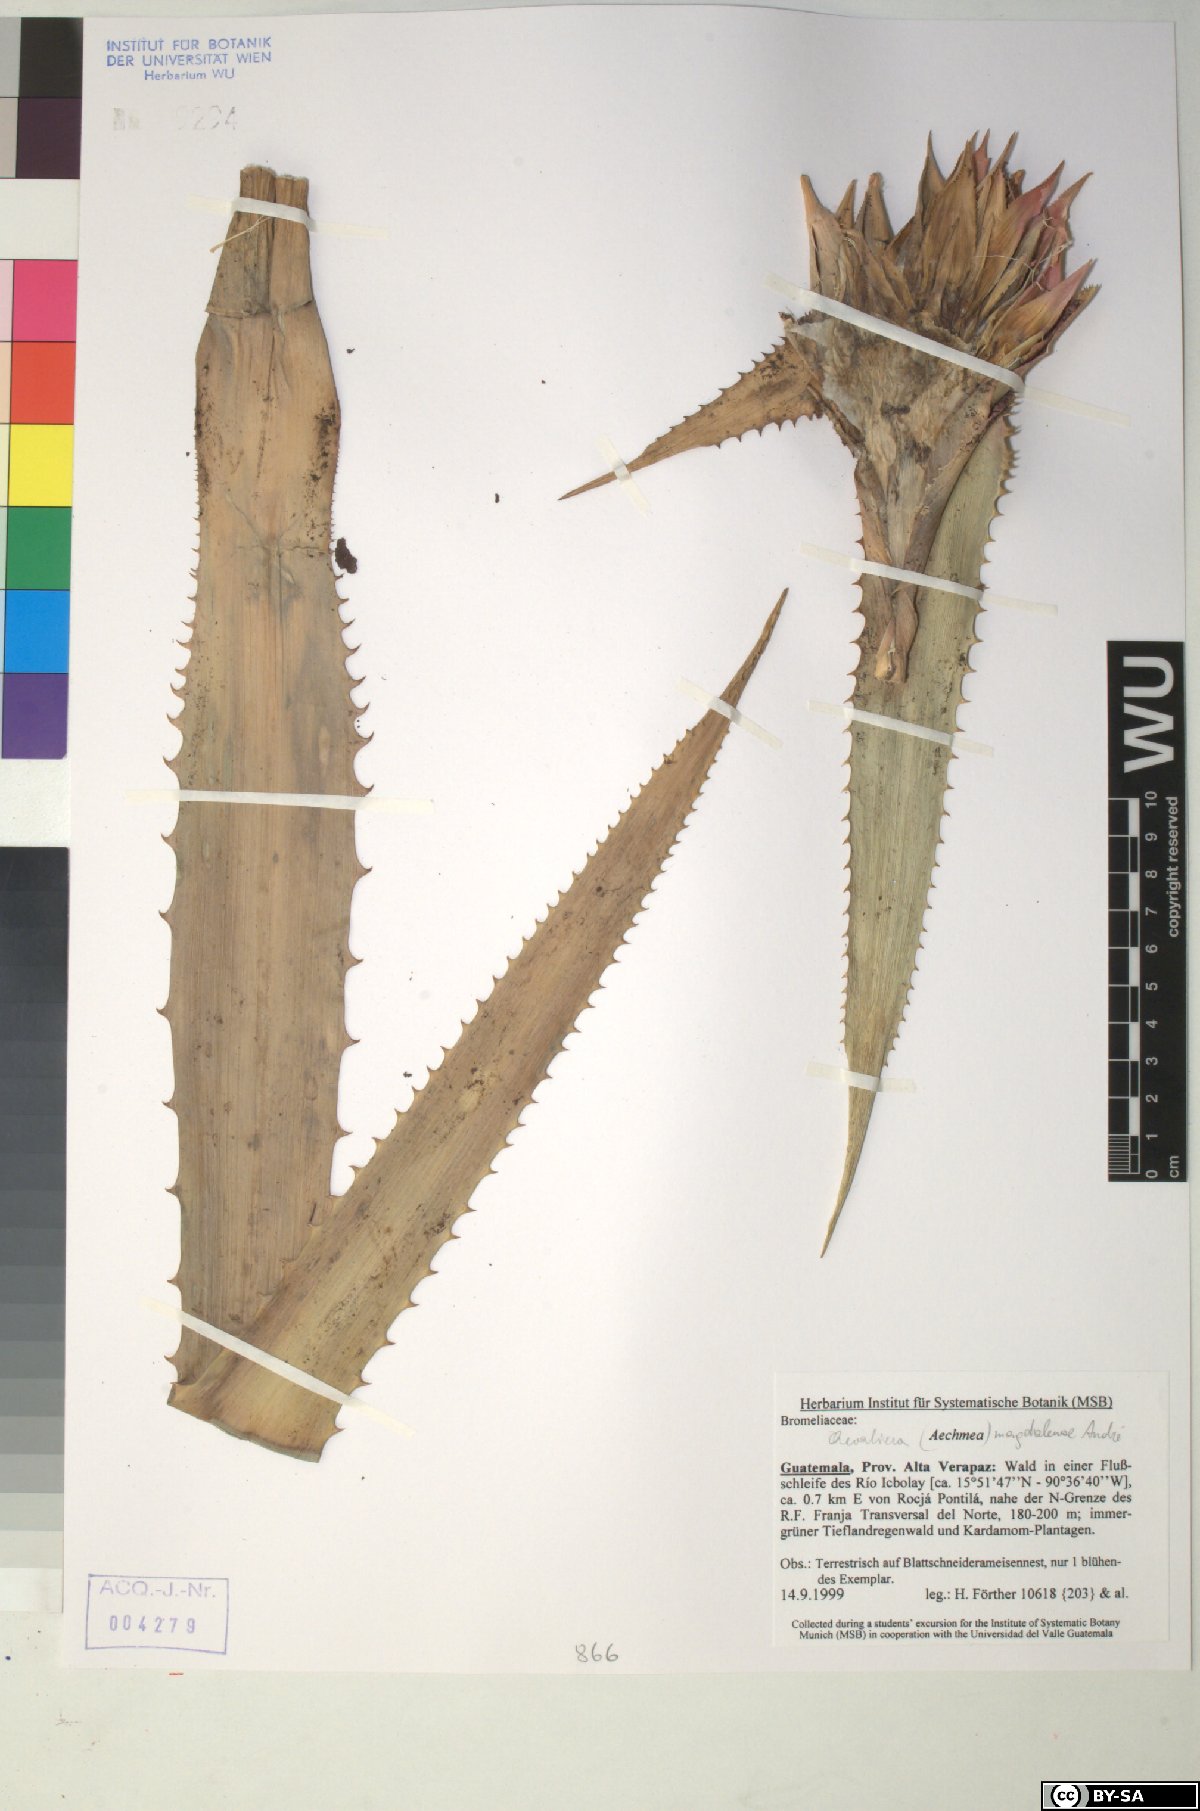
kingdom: Plantae
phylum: Tracheophyta
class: Liliopsida
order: Poales
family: Bromeliaceae
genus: Aechmea
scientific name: Aechmea magdalenae
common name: Arghan
